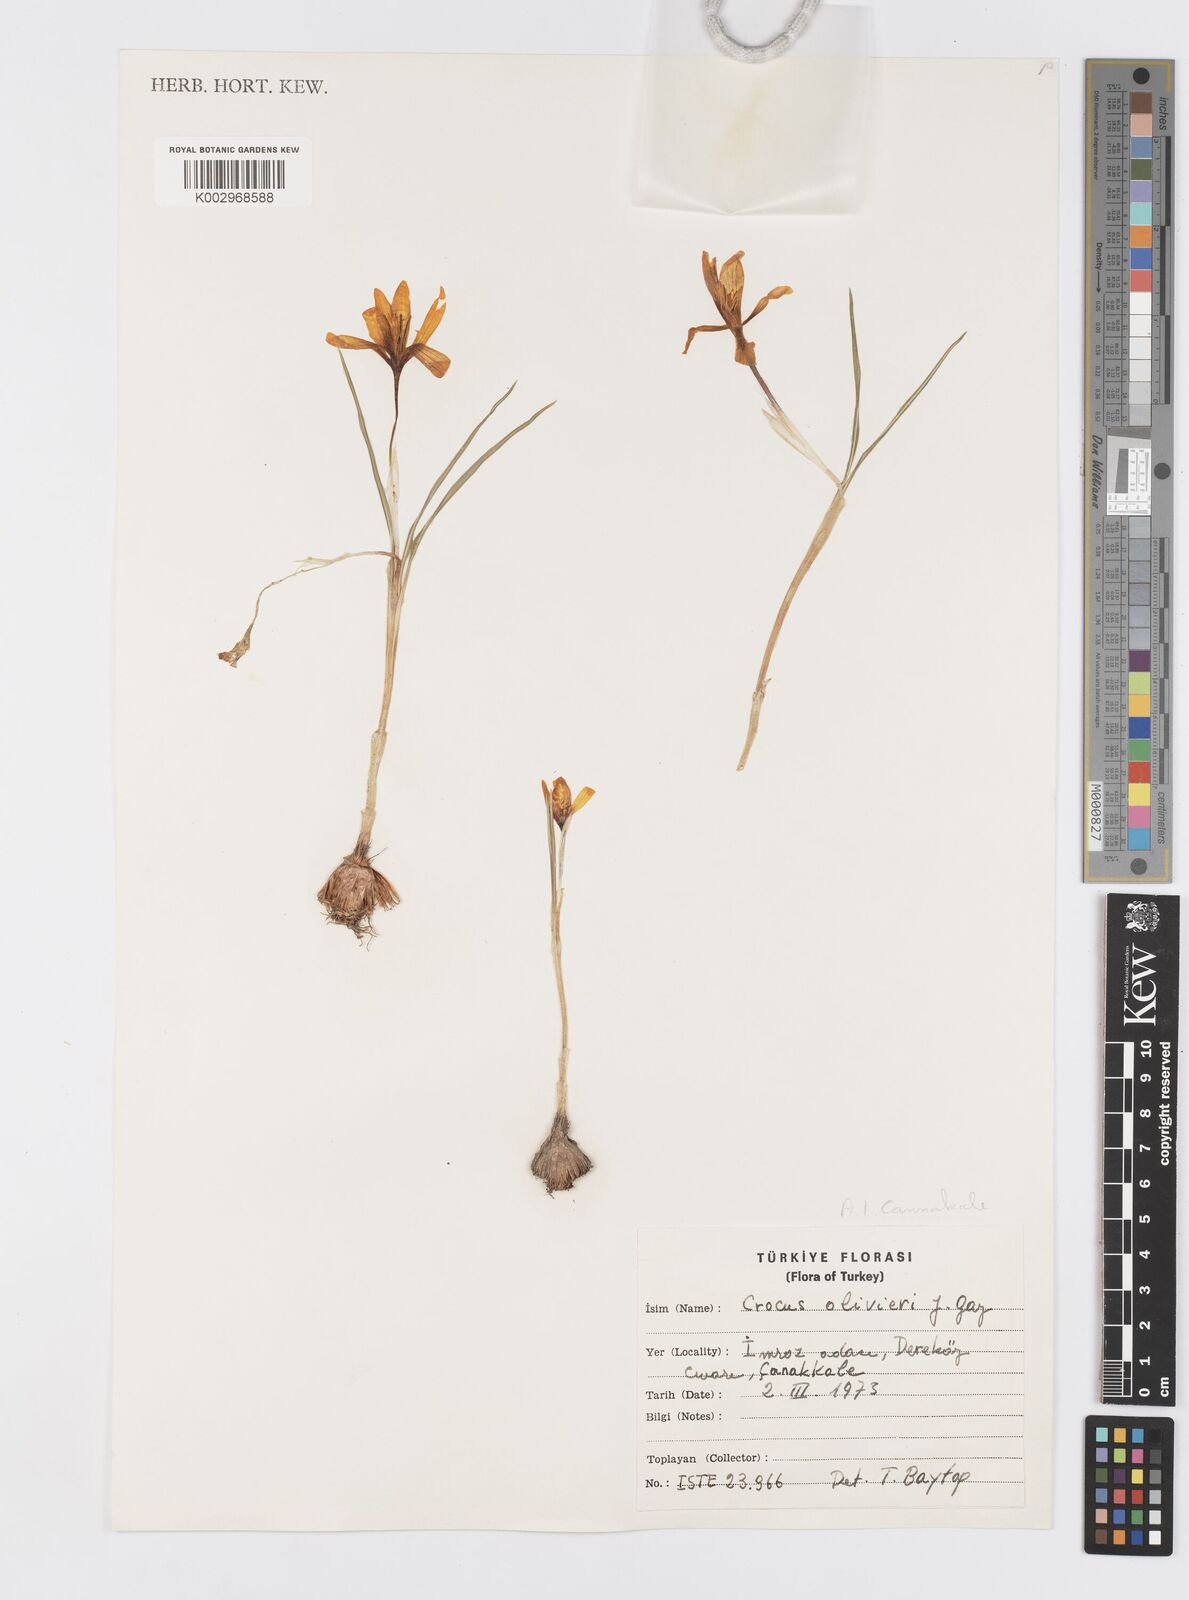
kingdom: Plantae
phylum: Tracheophyta
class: Liliopsida
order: Asparagales
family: Iridaceae
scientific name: Iridaceae
